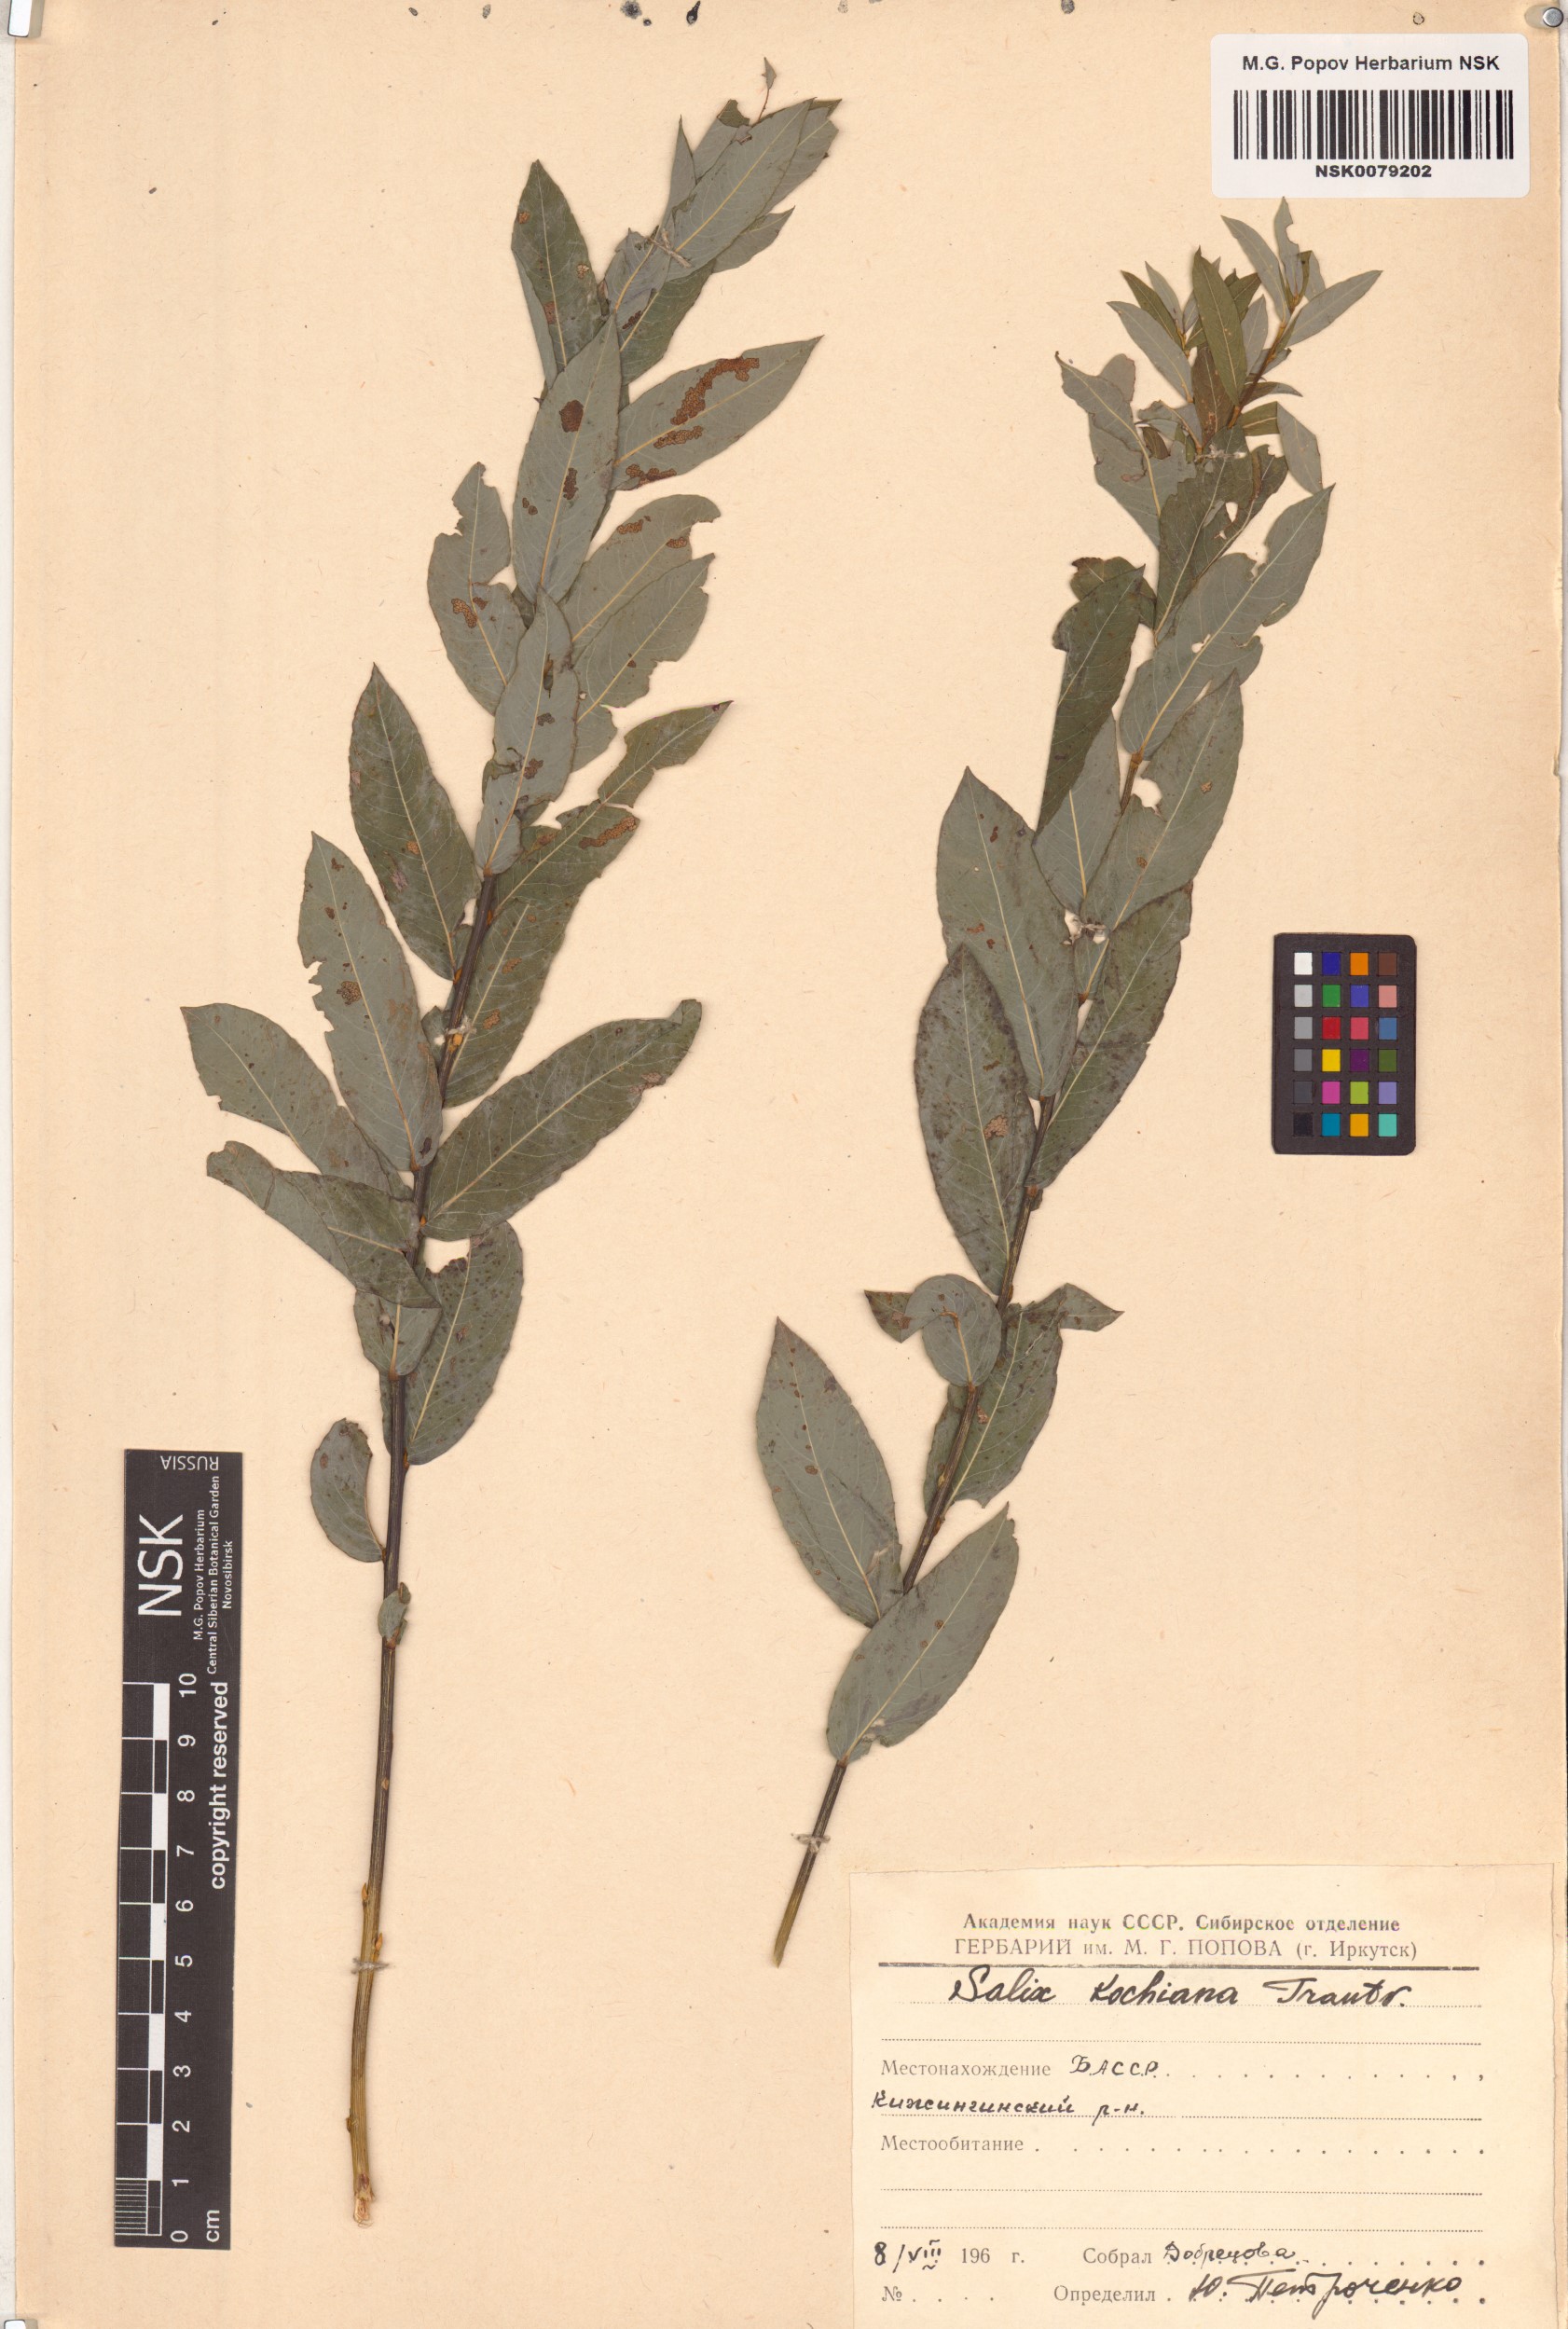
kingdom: Plantae
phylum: Tracheophyta
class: Magnoliopsida
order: Malpighiales
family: Salicaceae
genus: Salix
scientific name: Salix kochiana
